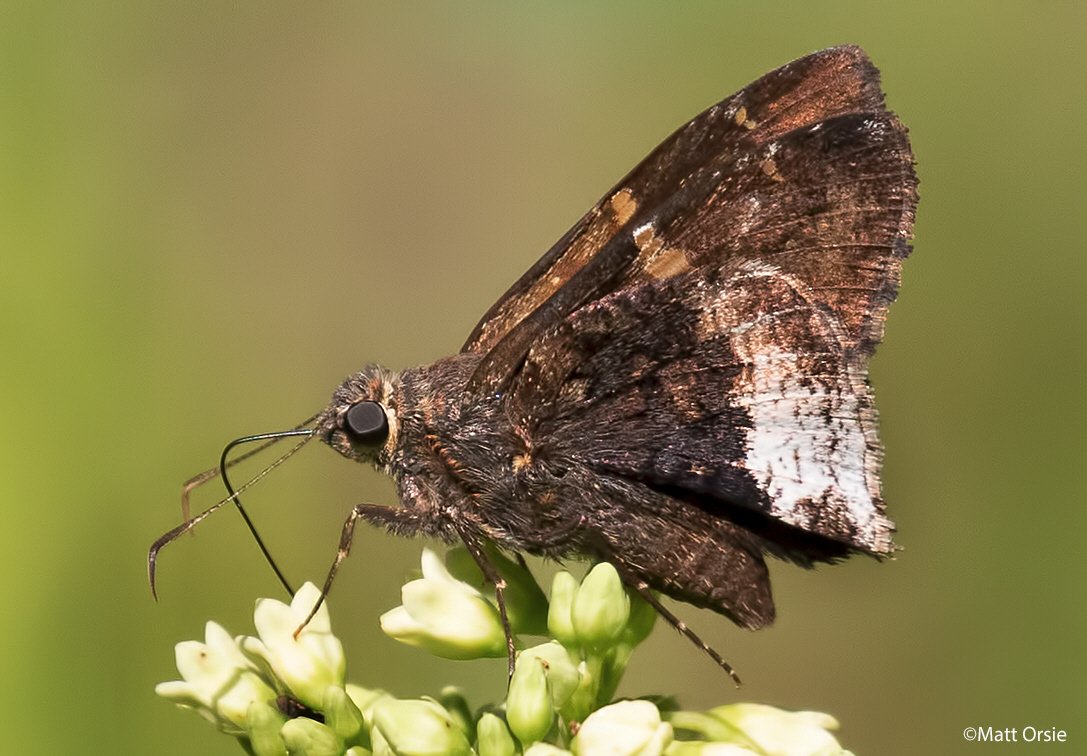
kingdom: Animalia
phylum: Arthropoda
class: Insecta
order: Lepidoptera
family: Hesperiidae
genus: Achalarus
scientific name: Achalarus lyciades
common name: Hoary Edge
